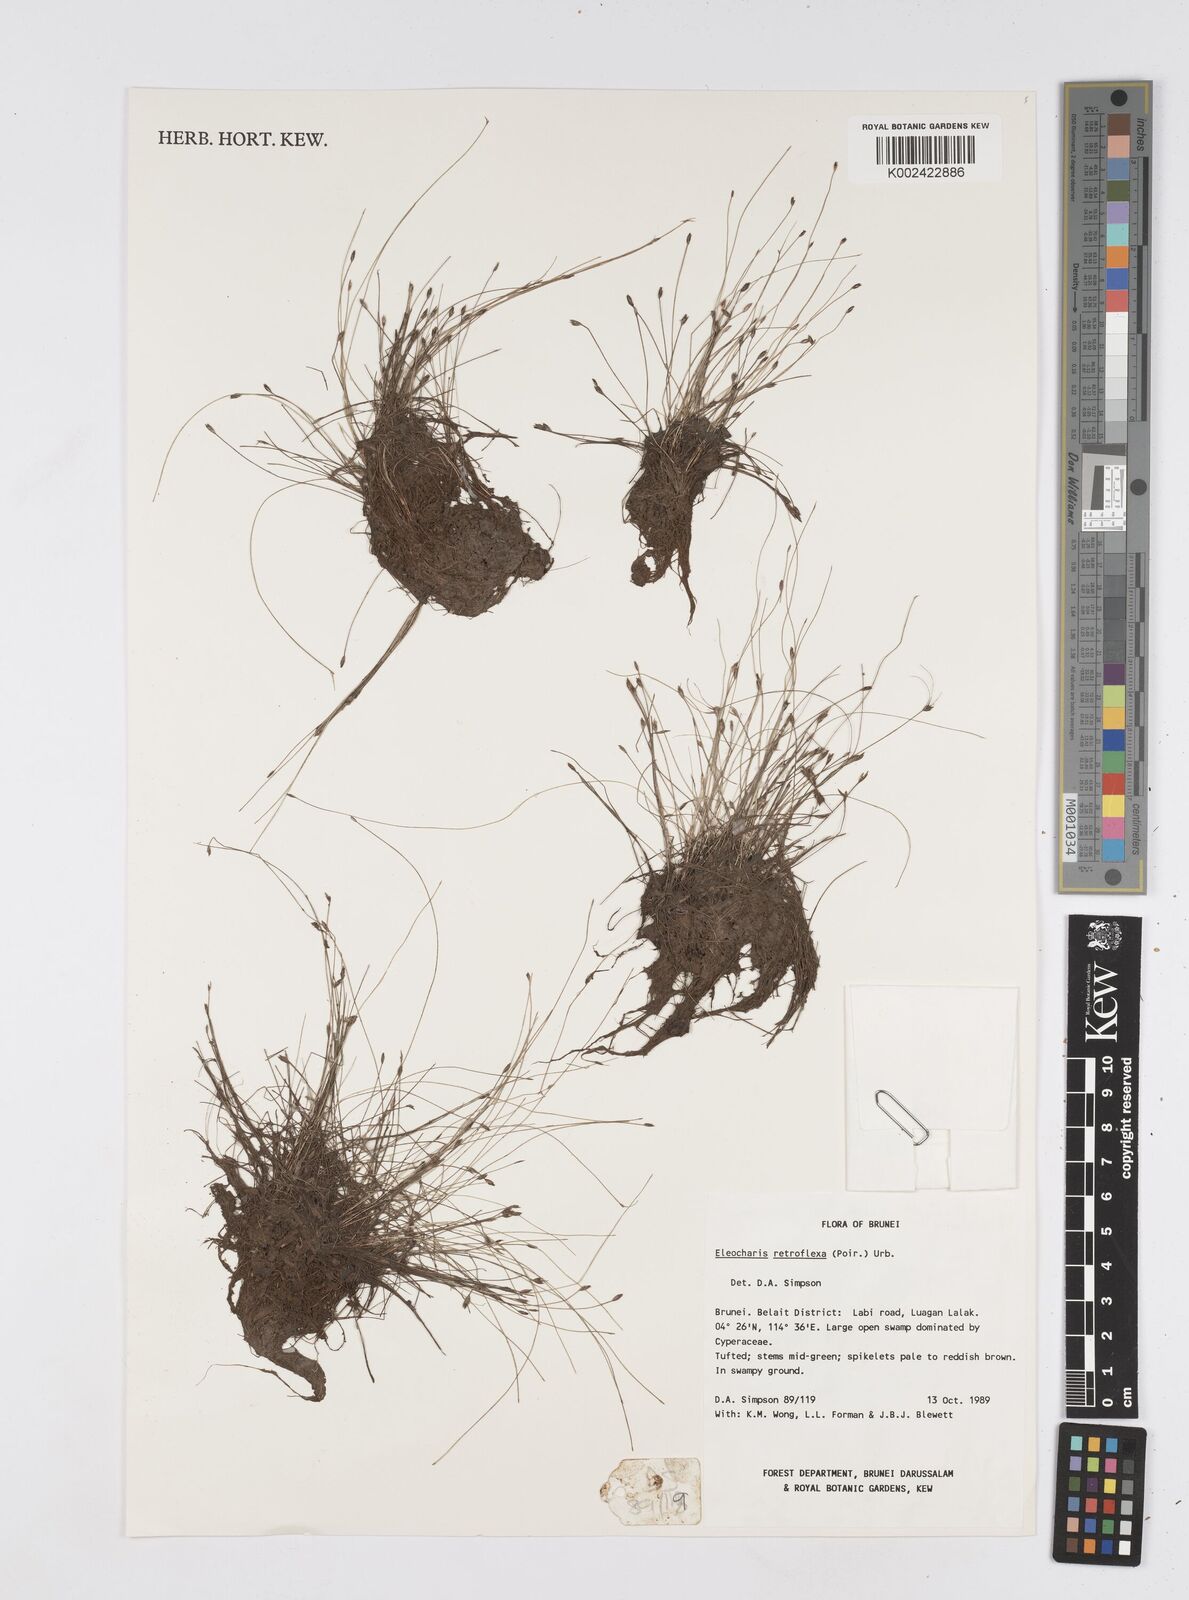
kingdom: Plantae
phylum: Tracheophyta
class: Liliopsida
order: Poales
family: Cyperaceae
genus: Eleocharis
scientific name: Eleocharis retroflexa
